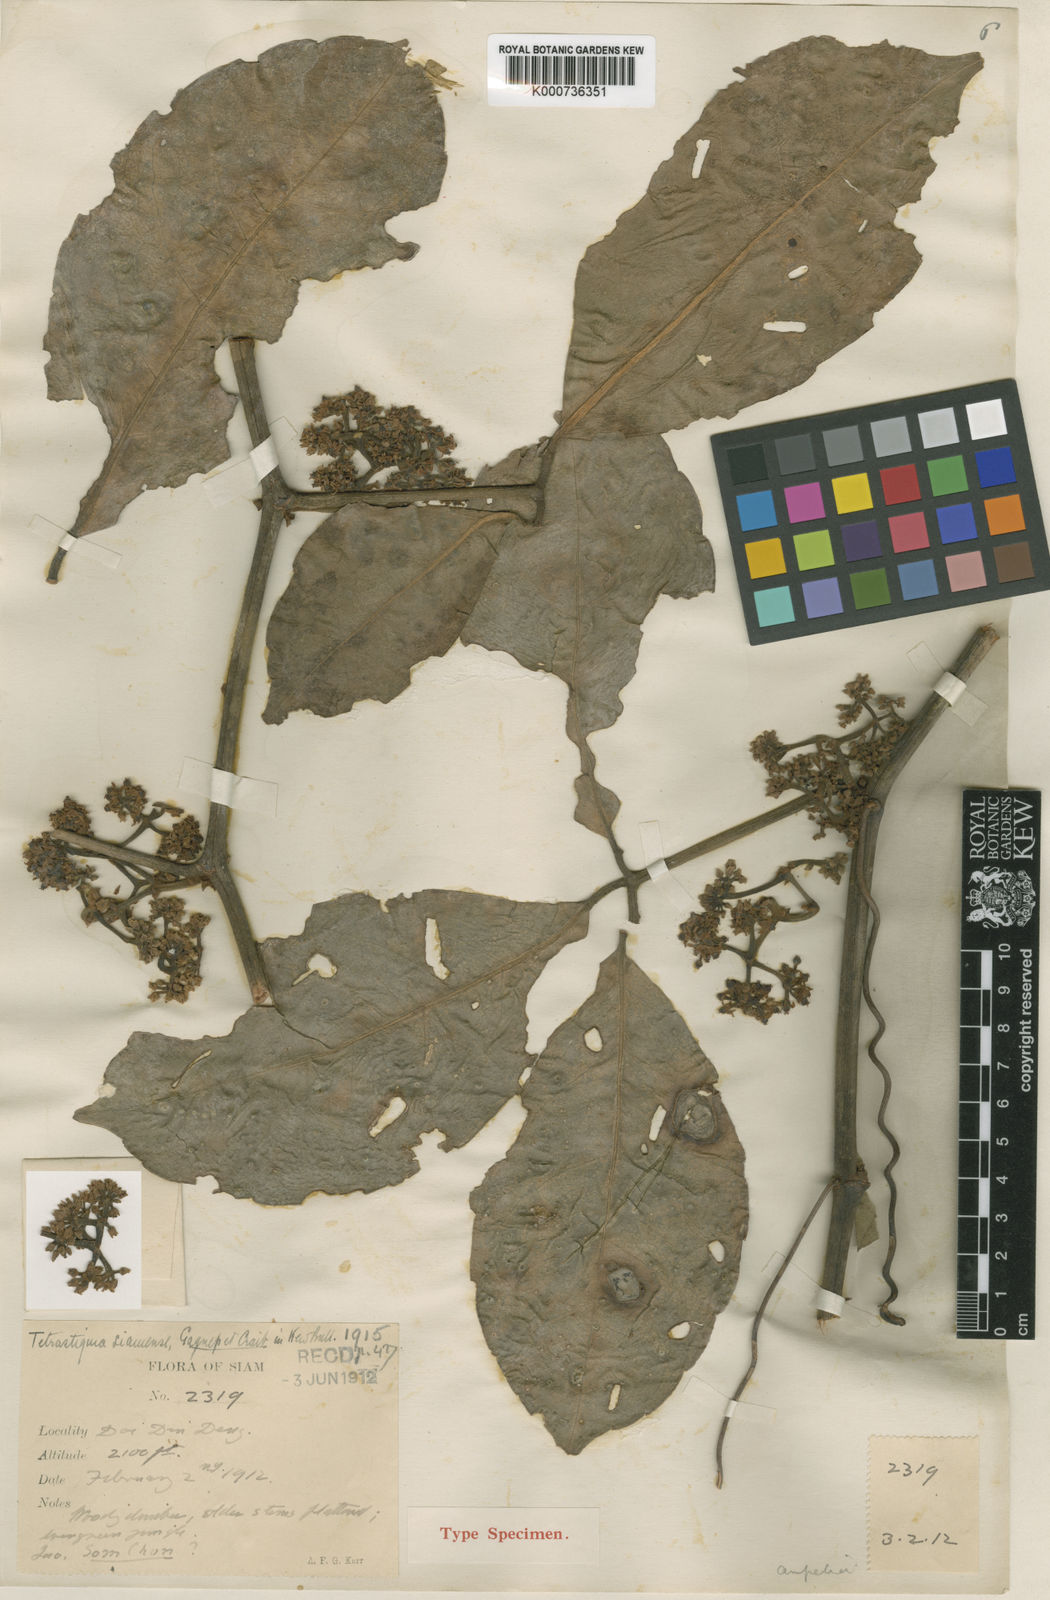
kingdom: Plantae
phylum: Tracheophyta
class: Magnoliopsida
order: Vitales
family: Vitaceae
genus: Tetrastigma
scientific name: Tetrastigma siamense
